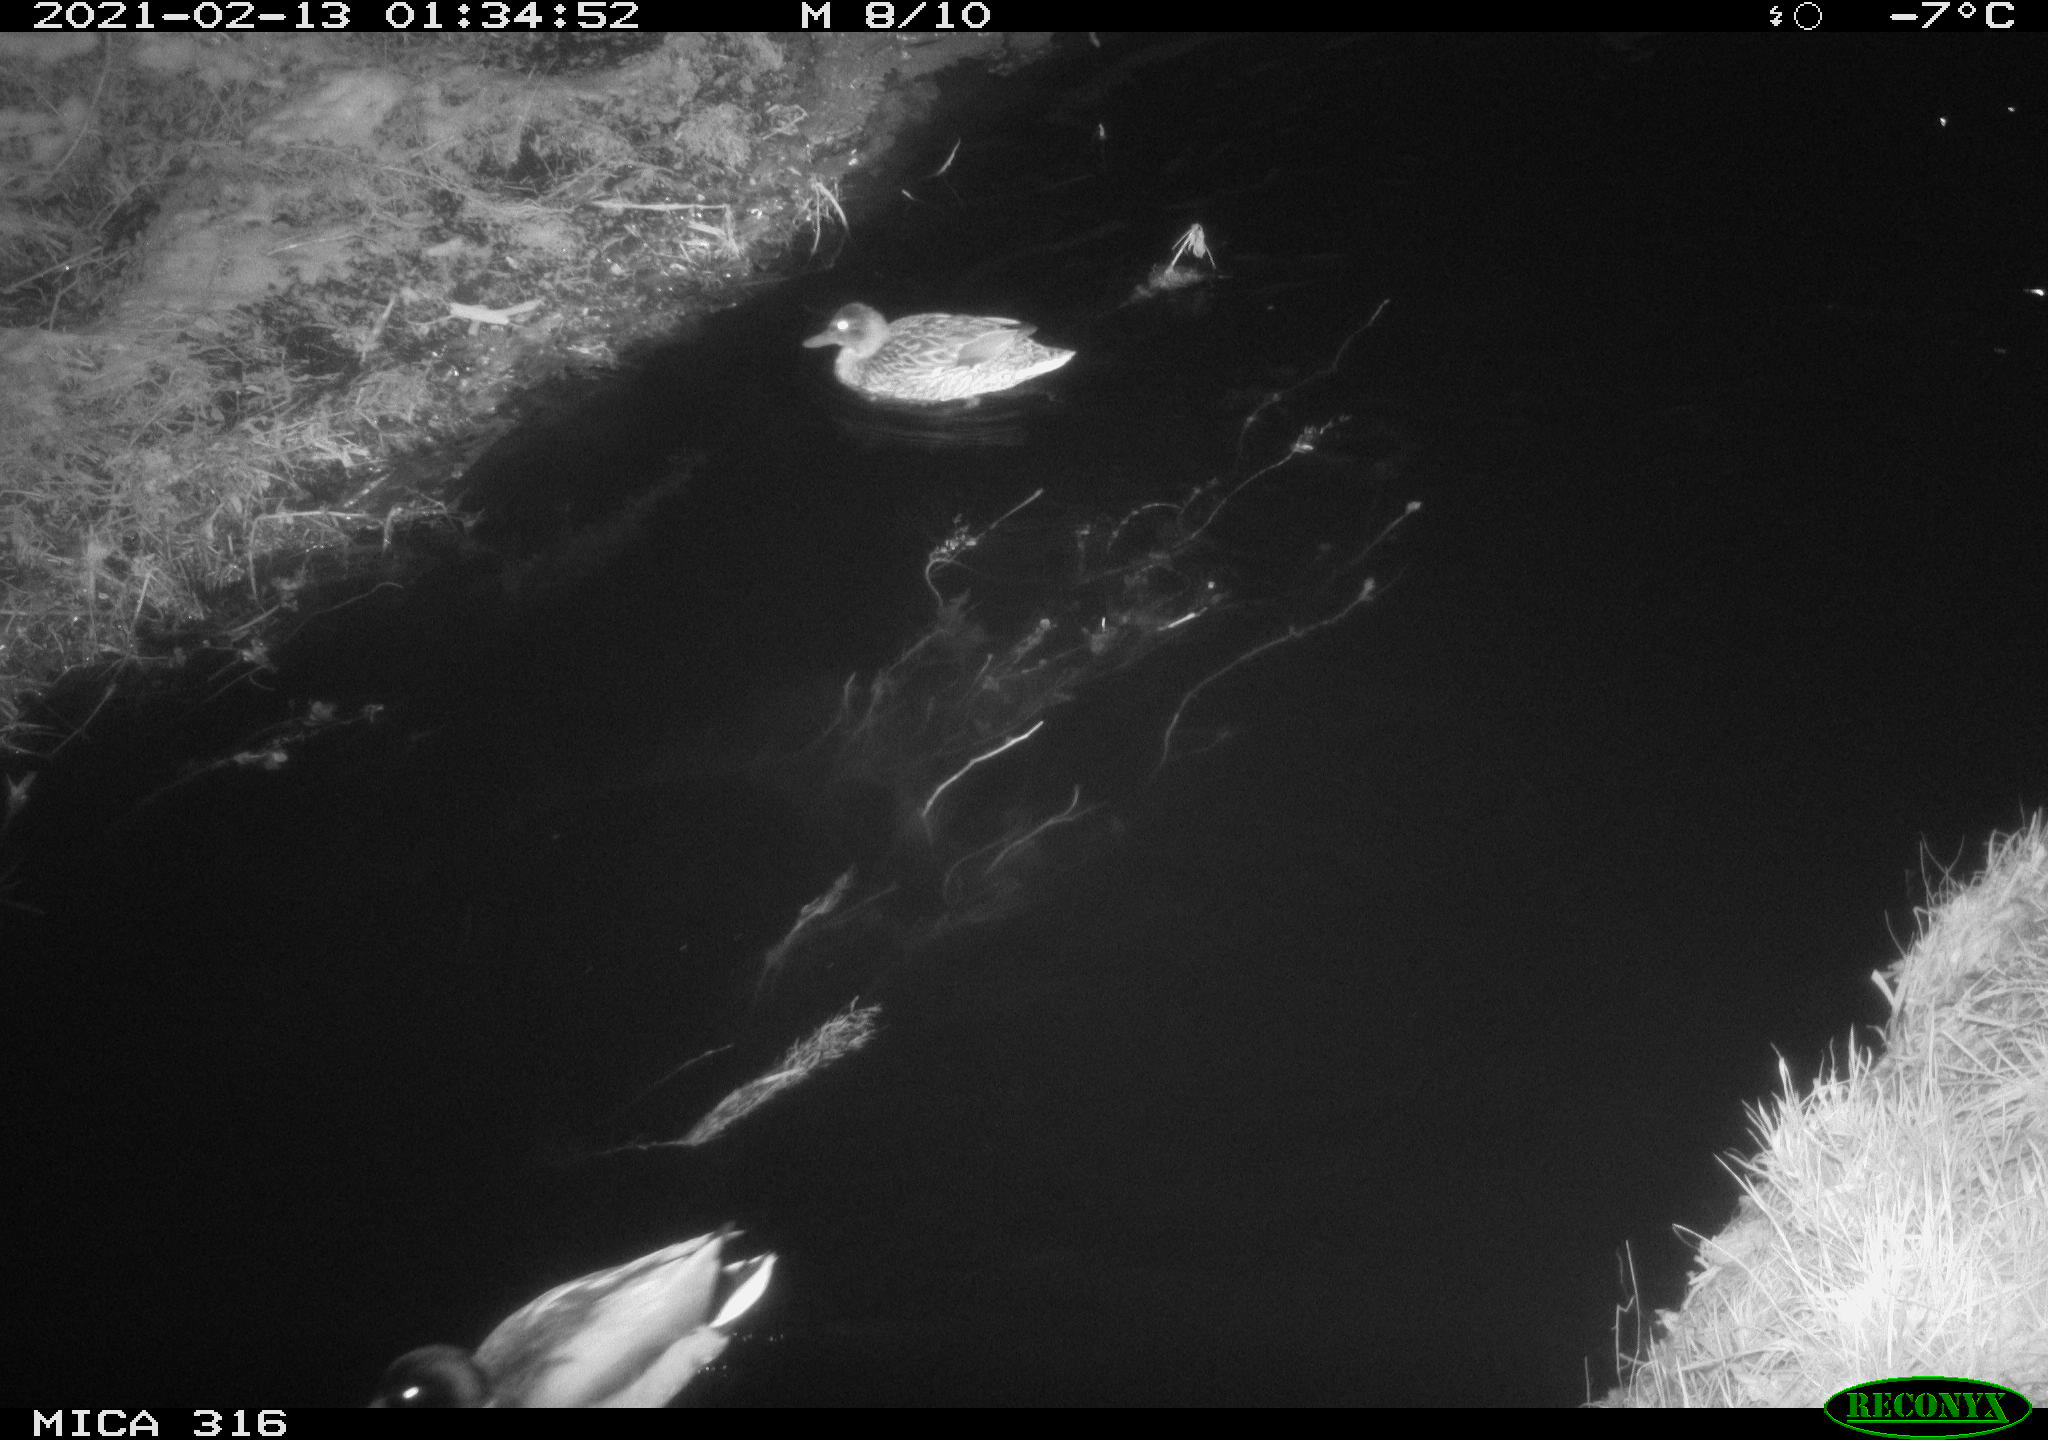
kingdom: Animalia
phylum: Chordata
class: Aves
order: Anseriformes
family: Anatidae
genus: Anas
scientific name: Anas platyrhynchos
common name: Mallard
